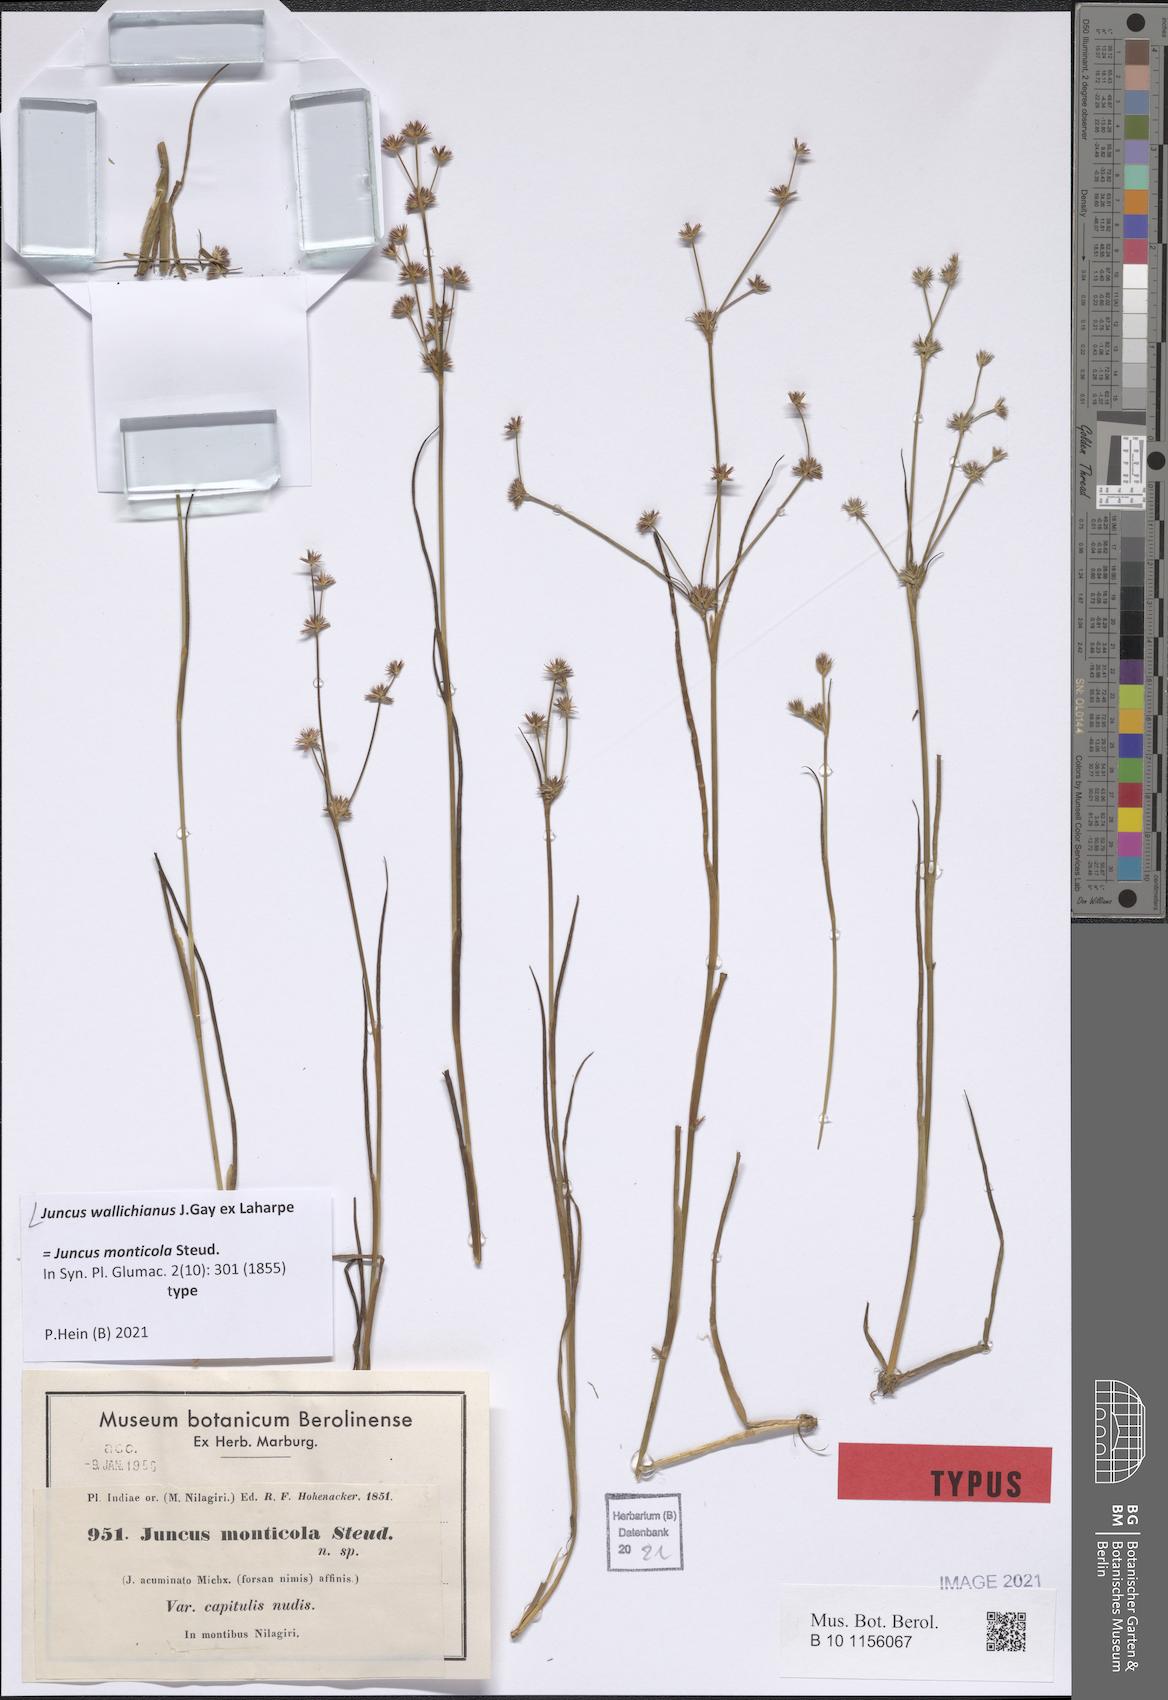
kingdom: Plantae
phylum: Tracheophyta
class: Liliopsida
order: Poales
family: Juncaceae
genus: Juncus
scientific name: Juncus wallichianus
